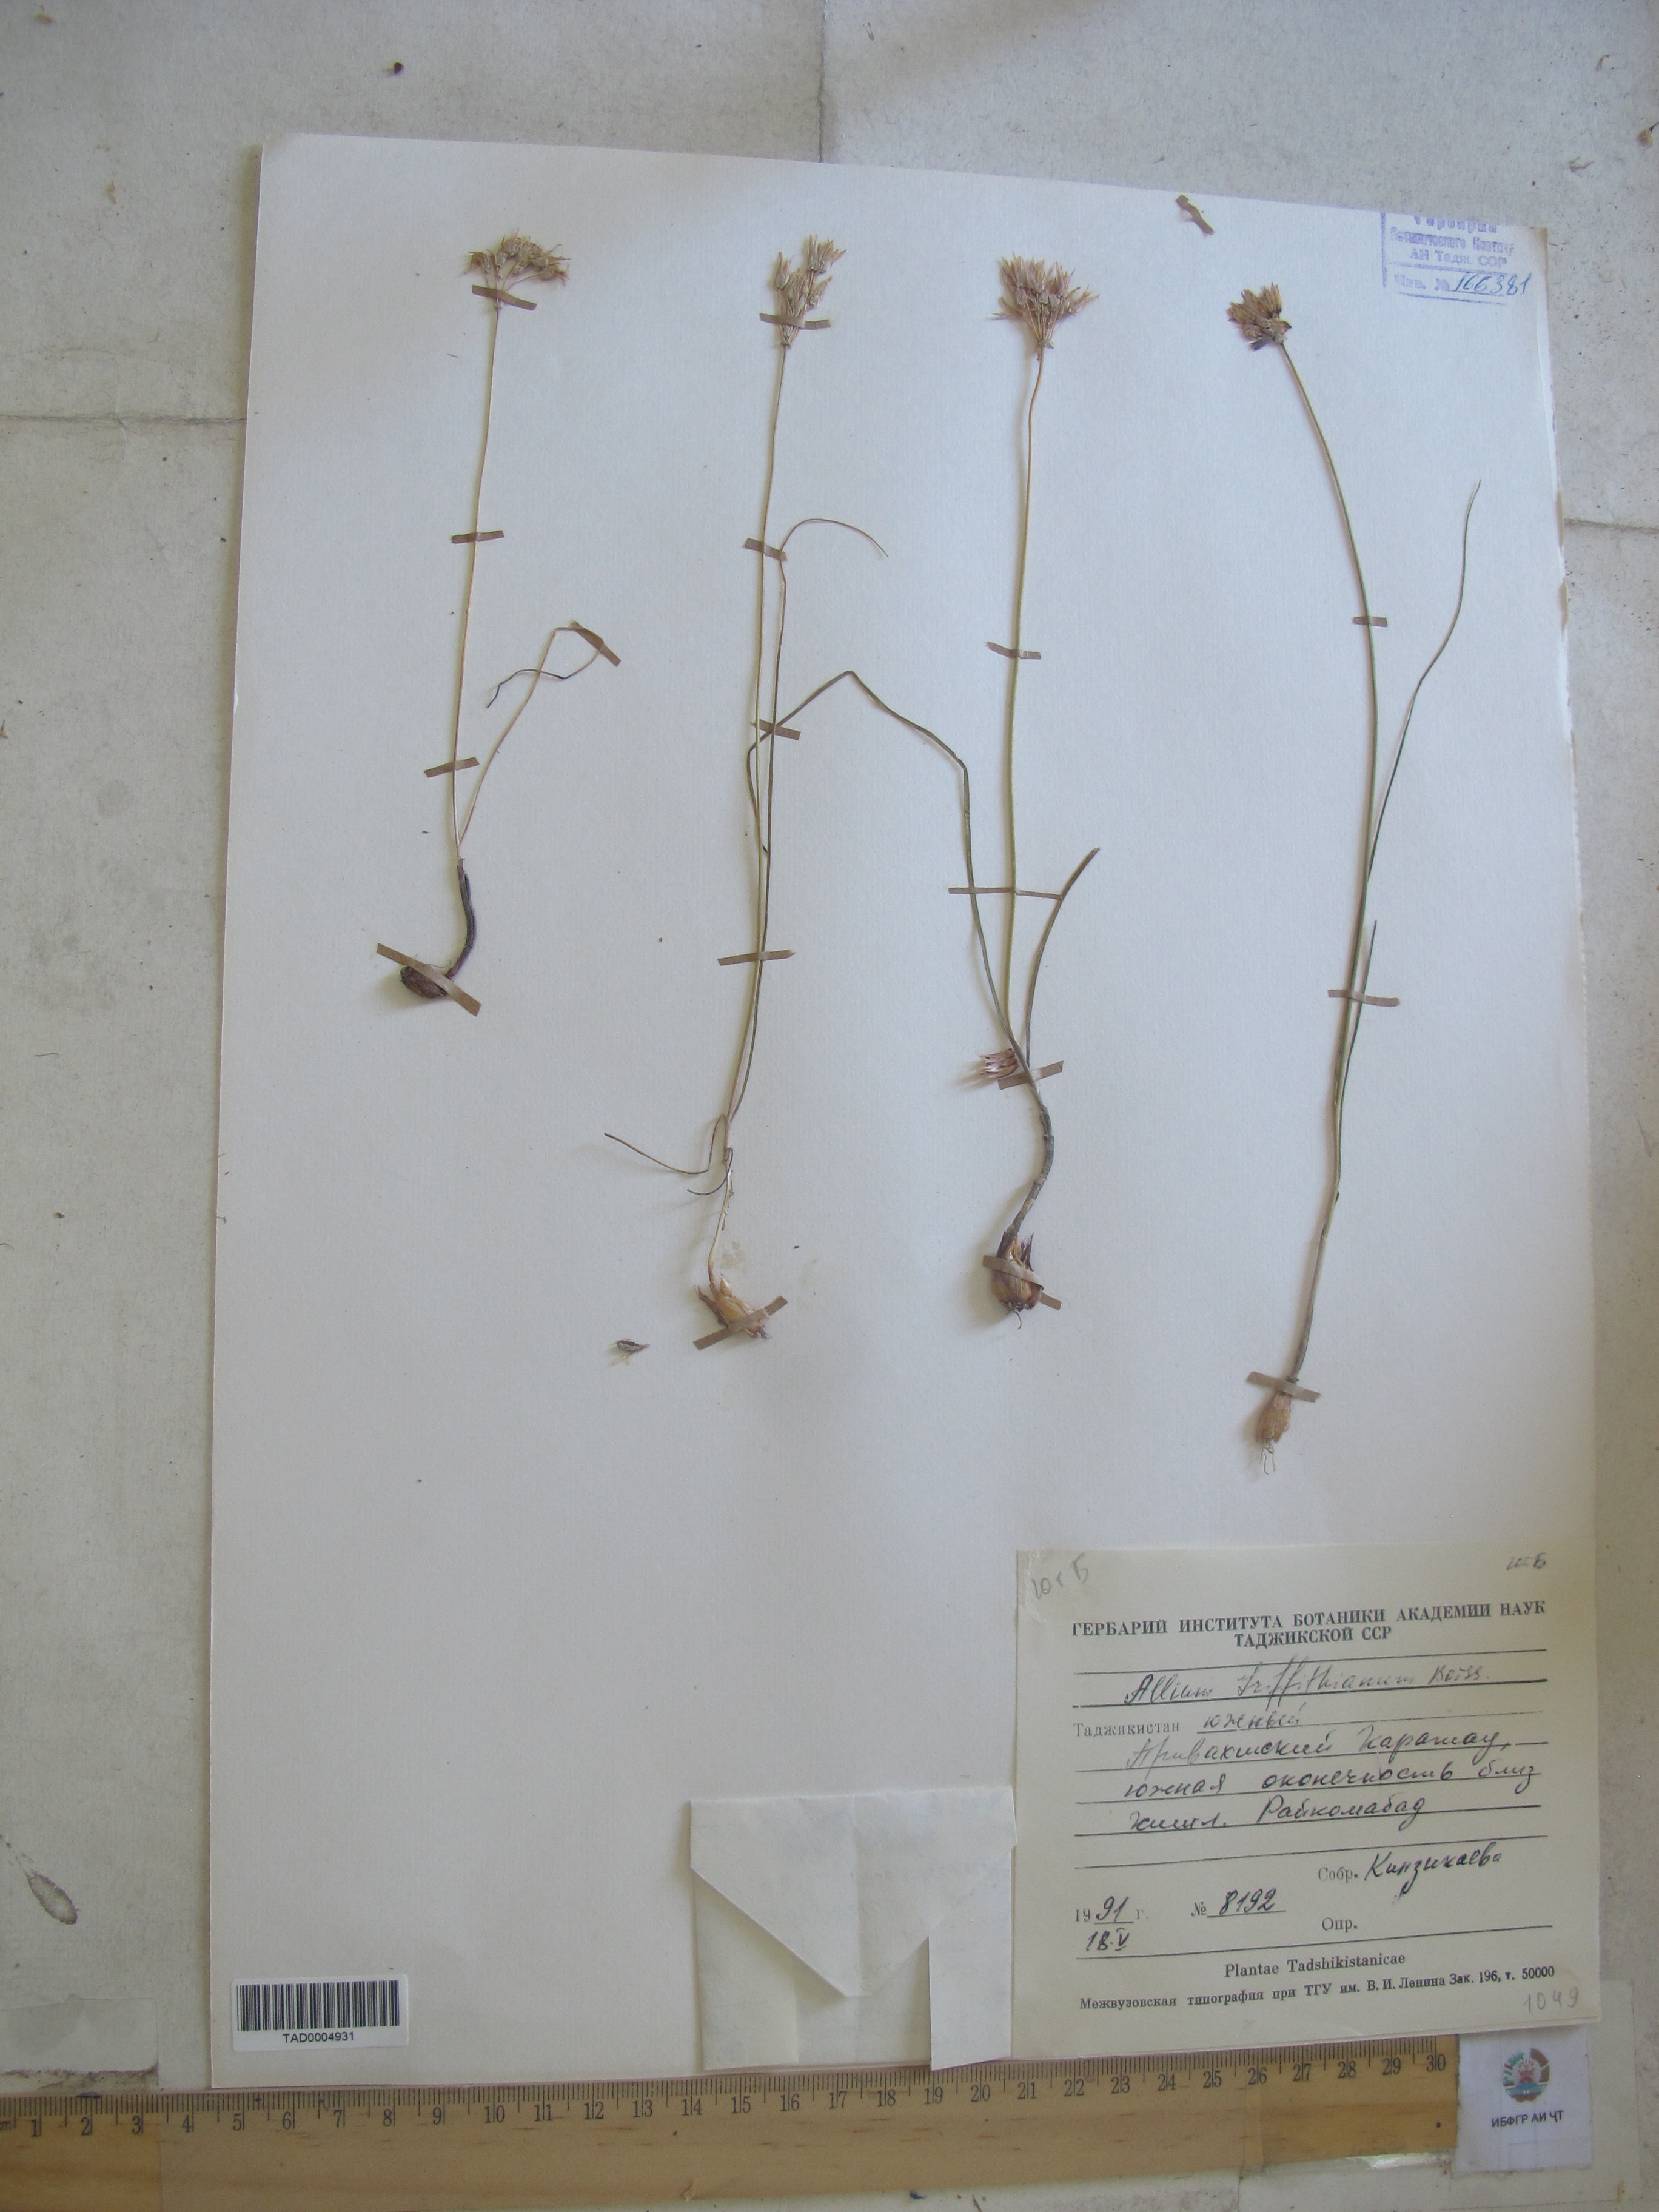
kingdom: Plantae
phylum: Tracheophyta
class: Liliopsida
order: Asparagales
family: Amaryllidaceae
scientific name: Amaryllidaceae
